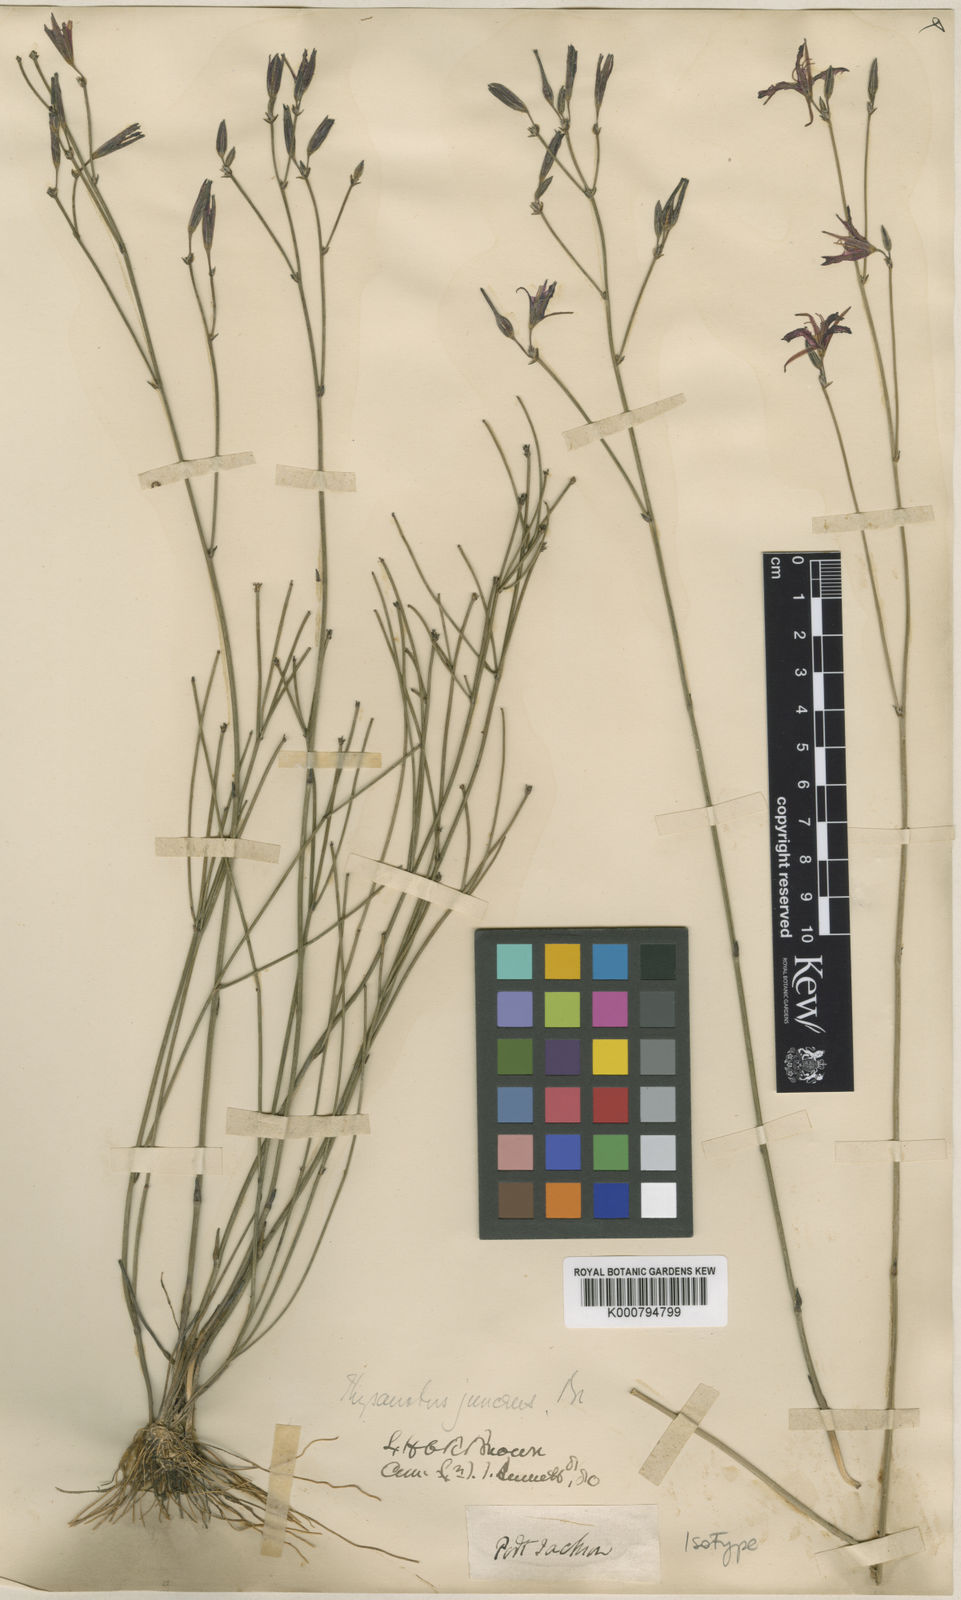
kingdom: Plantae
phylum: Tracheophyta
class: Liliopsida
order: Asparagales
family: Asparagaceae
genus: Thysanotus
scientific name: Thysanotus juncifolius
